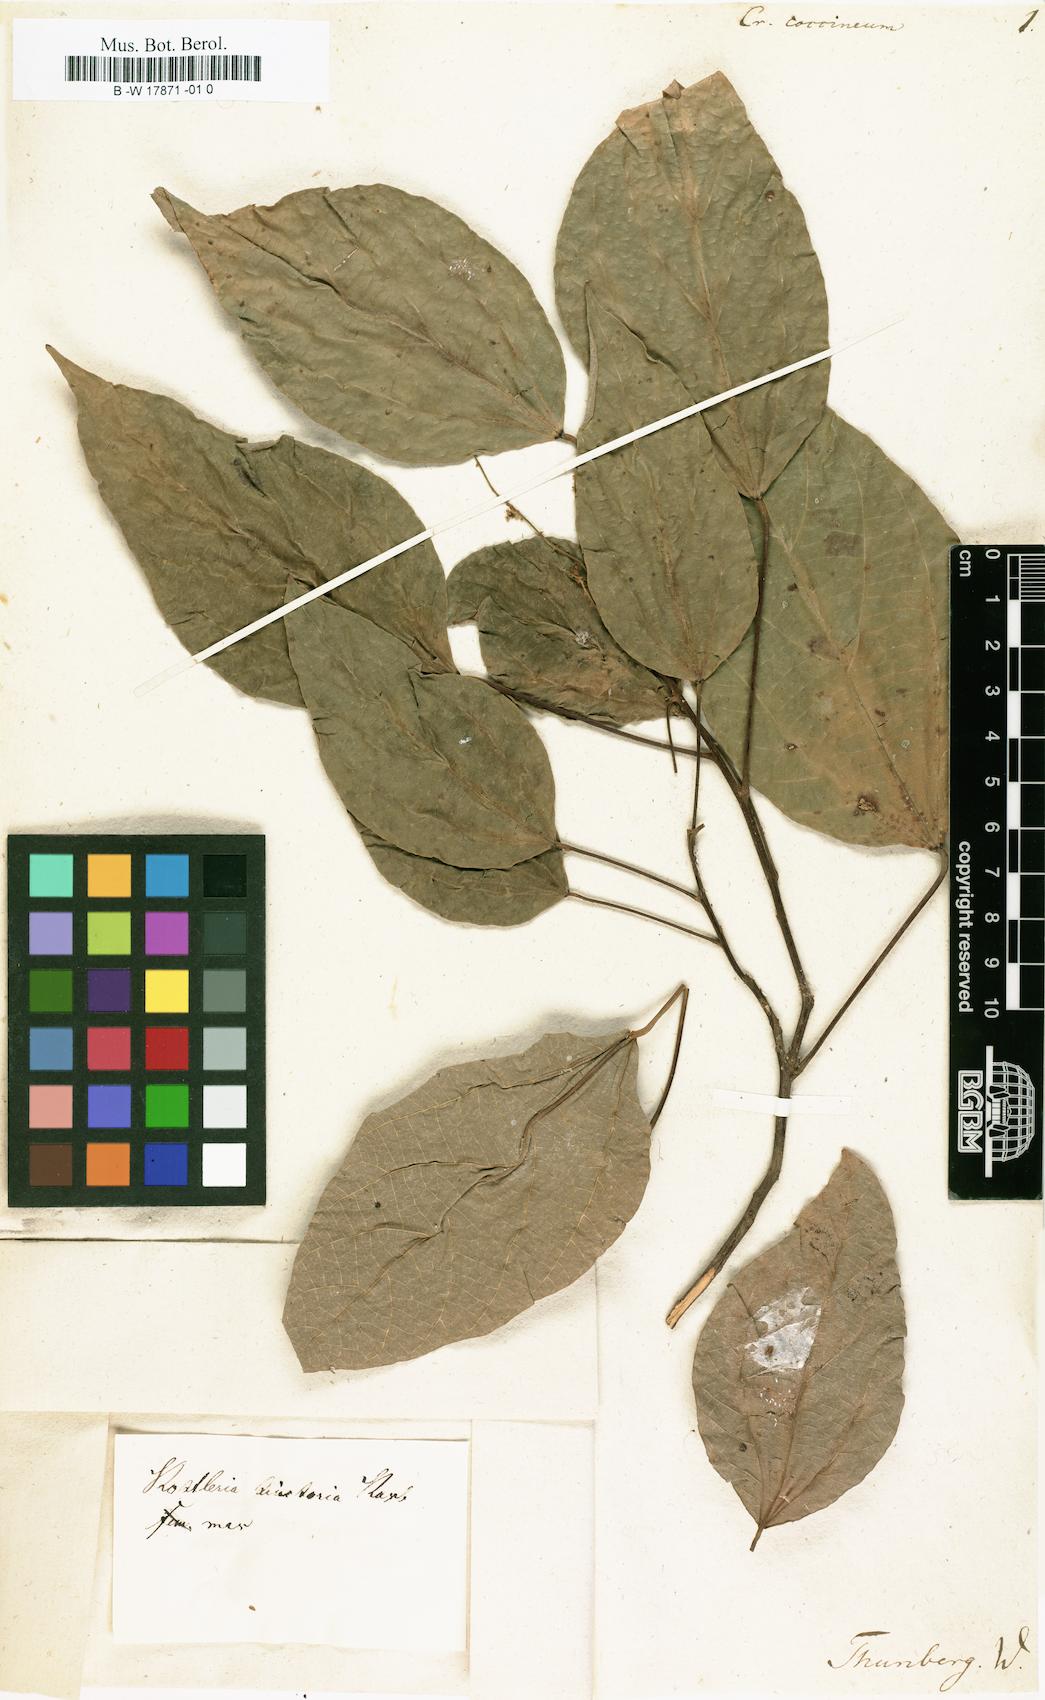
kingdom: Plantae
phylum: Tracheophyta
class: Magnoliopsida
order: Malpighiales
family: Euphorbiaceae
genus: Croton
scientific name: Croton coccineus
